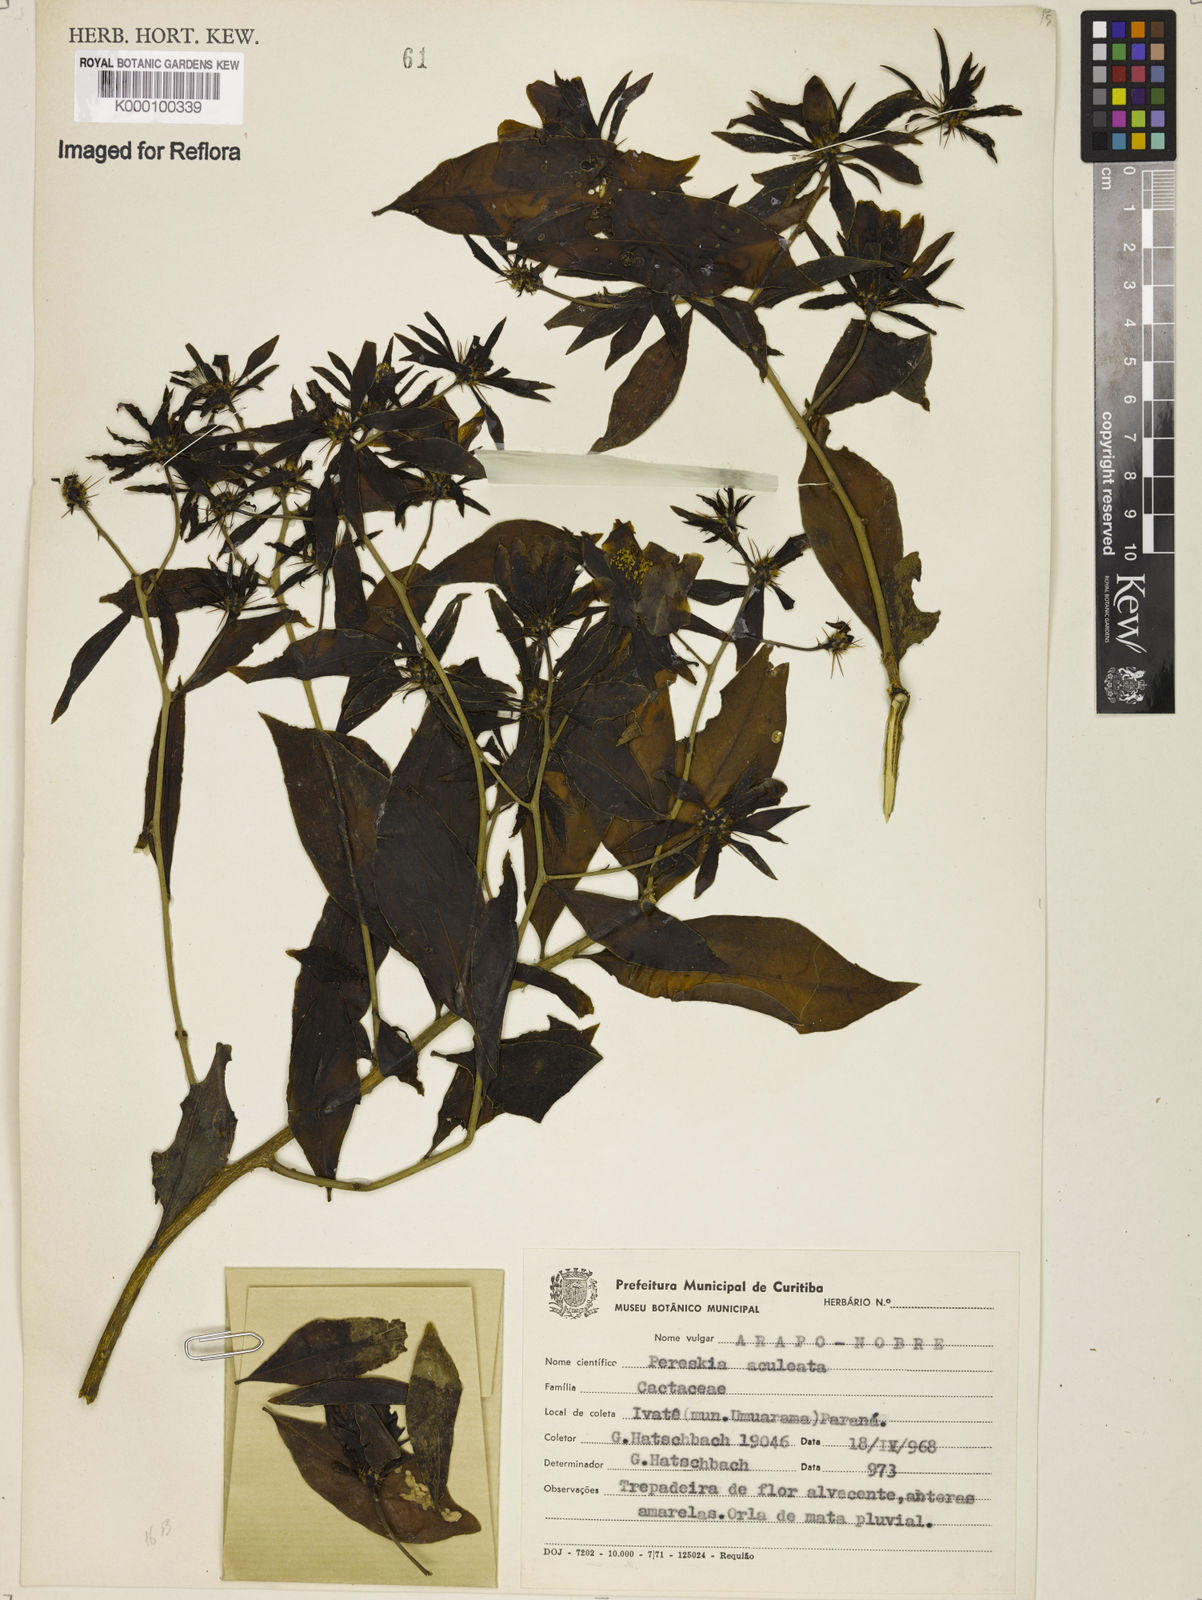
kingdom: Plantae
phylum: Tracheophyta
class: Magnoliopsida
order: Caryophyllales
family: Cactaceae
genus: Pereskia
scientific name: Pereskia aculeata
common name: Barbados gooseberry
